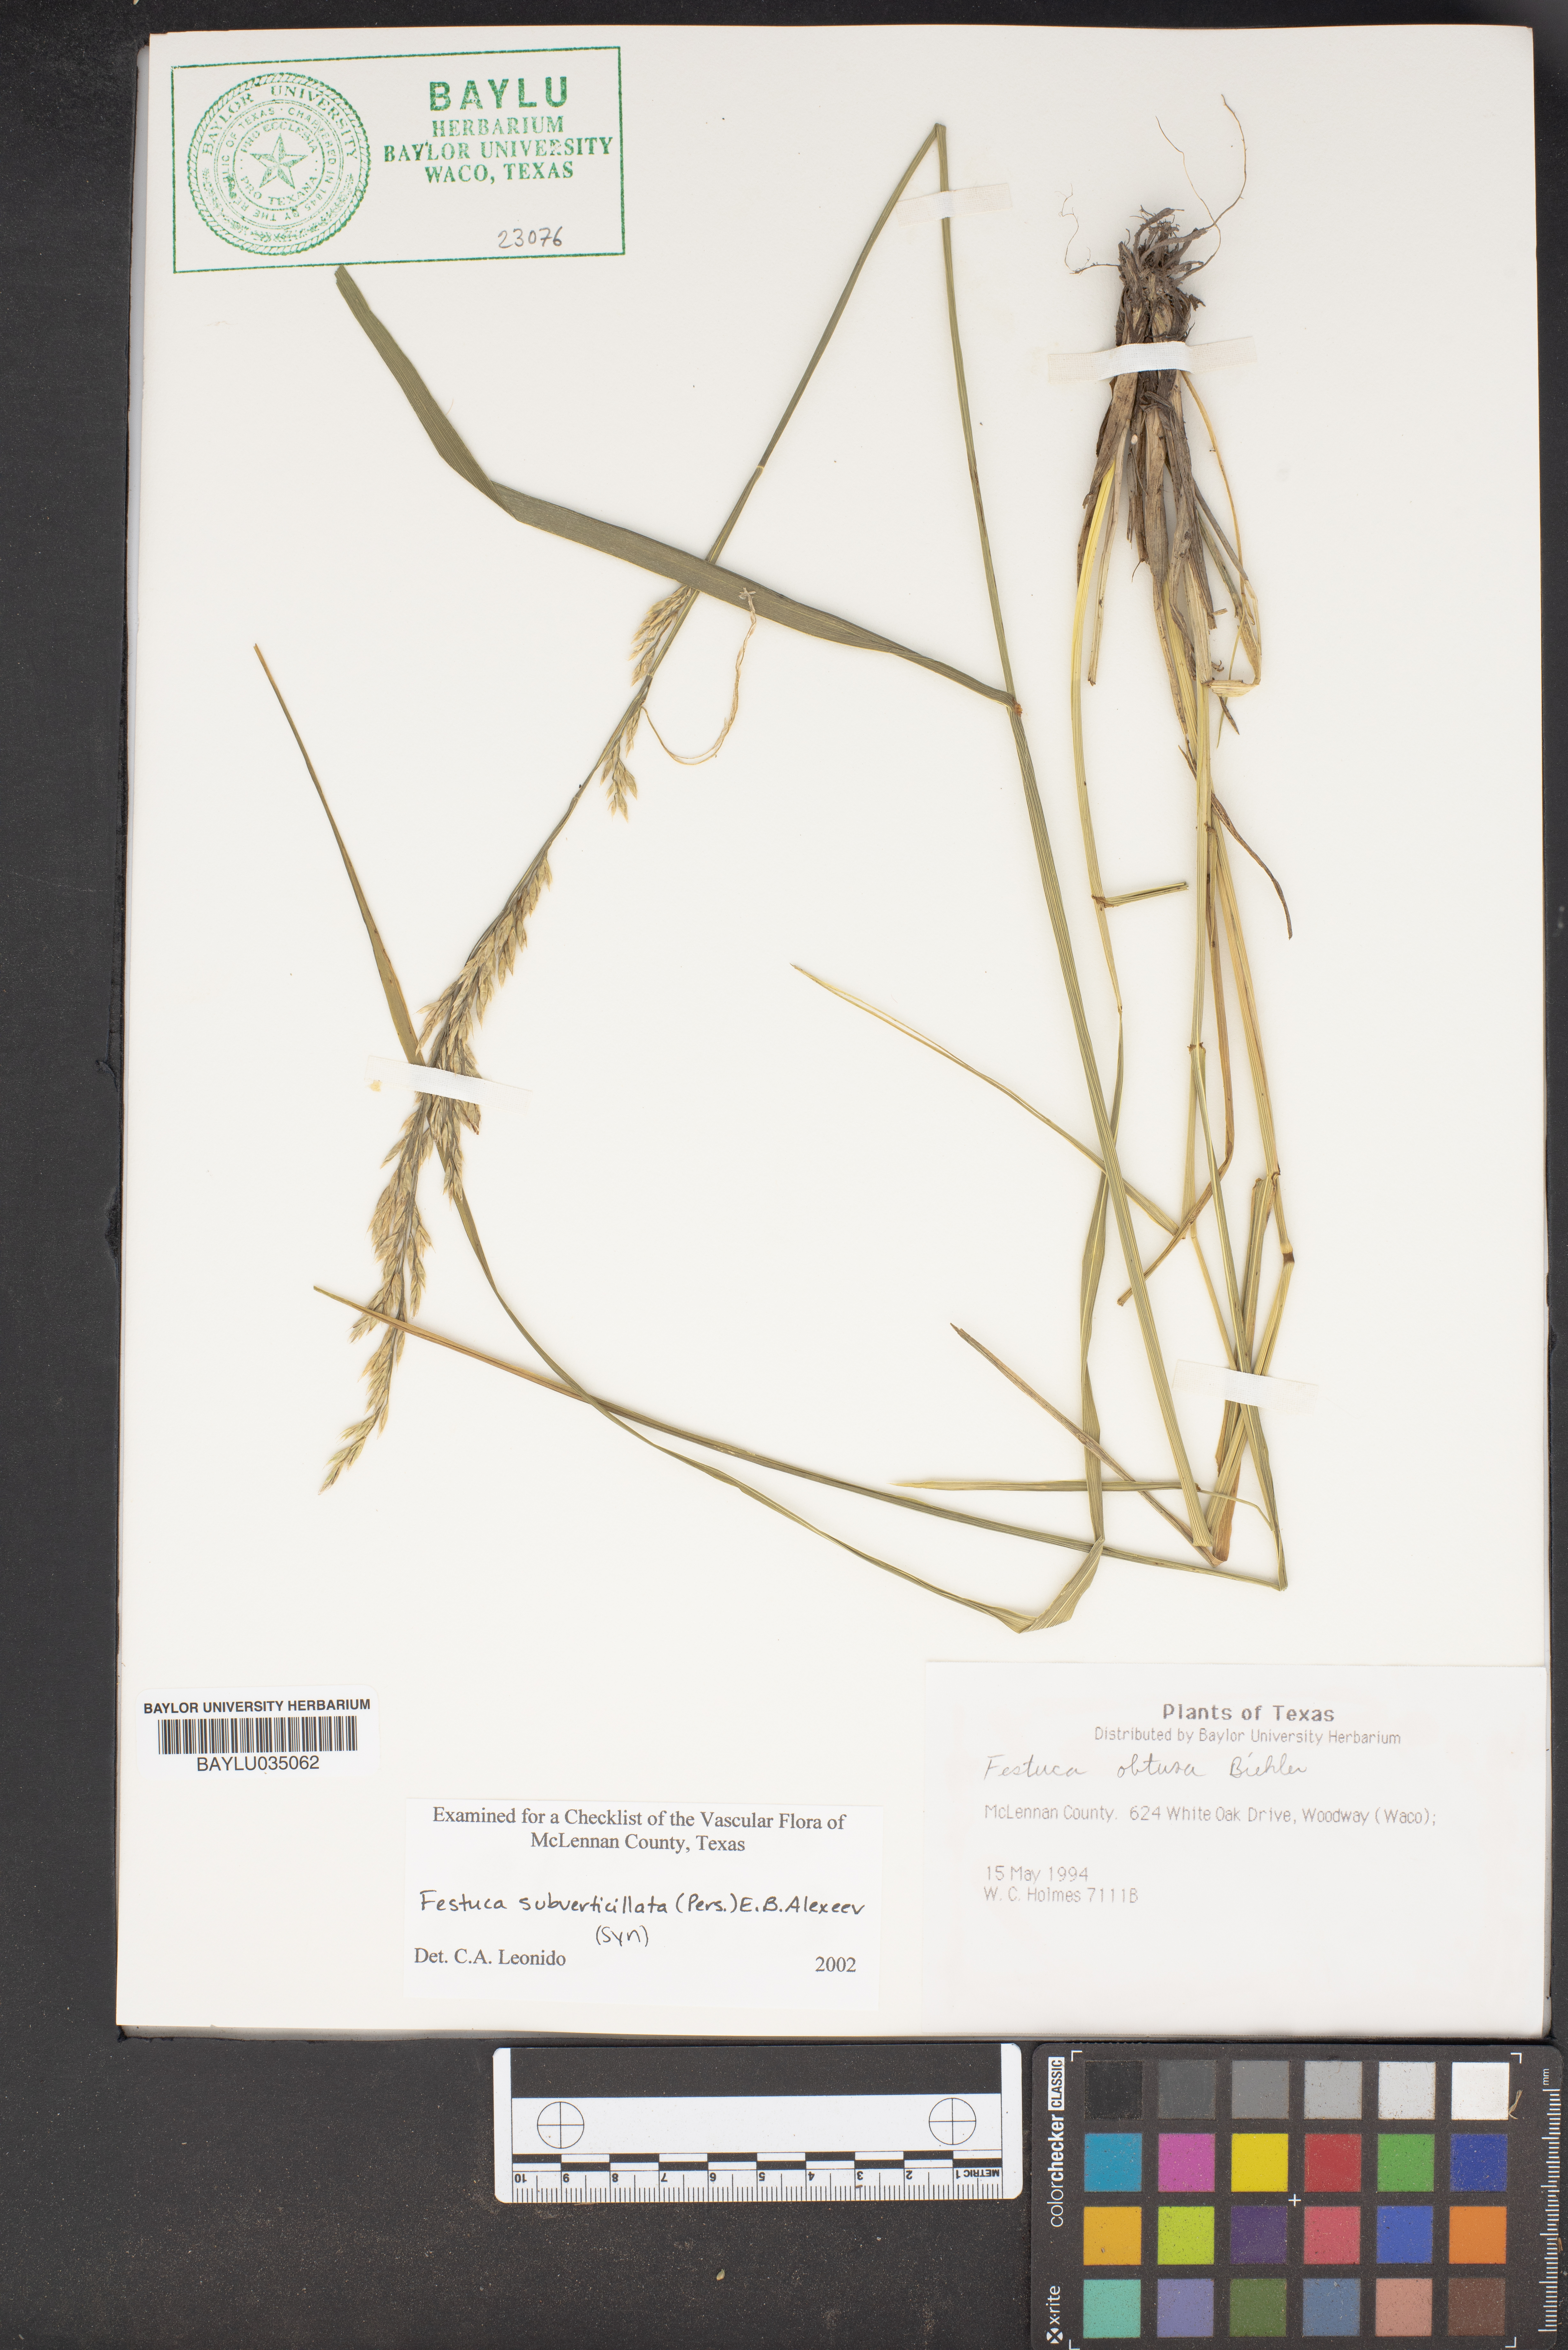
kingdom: Plantae
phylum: Tracheophyta
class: Liliopsida
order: Poales
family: Poaceae
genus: Festuca
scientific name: Festuca subverticillata
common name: Nodding fescue
